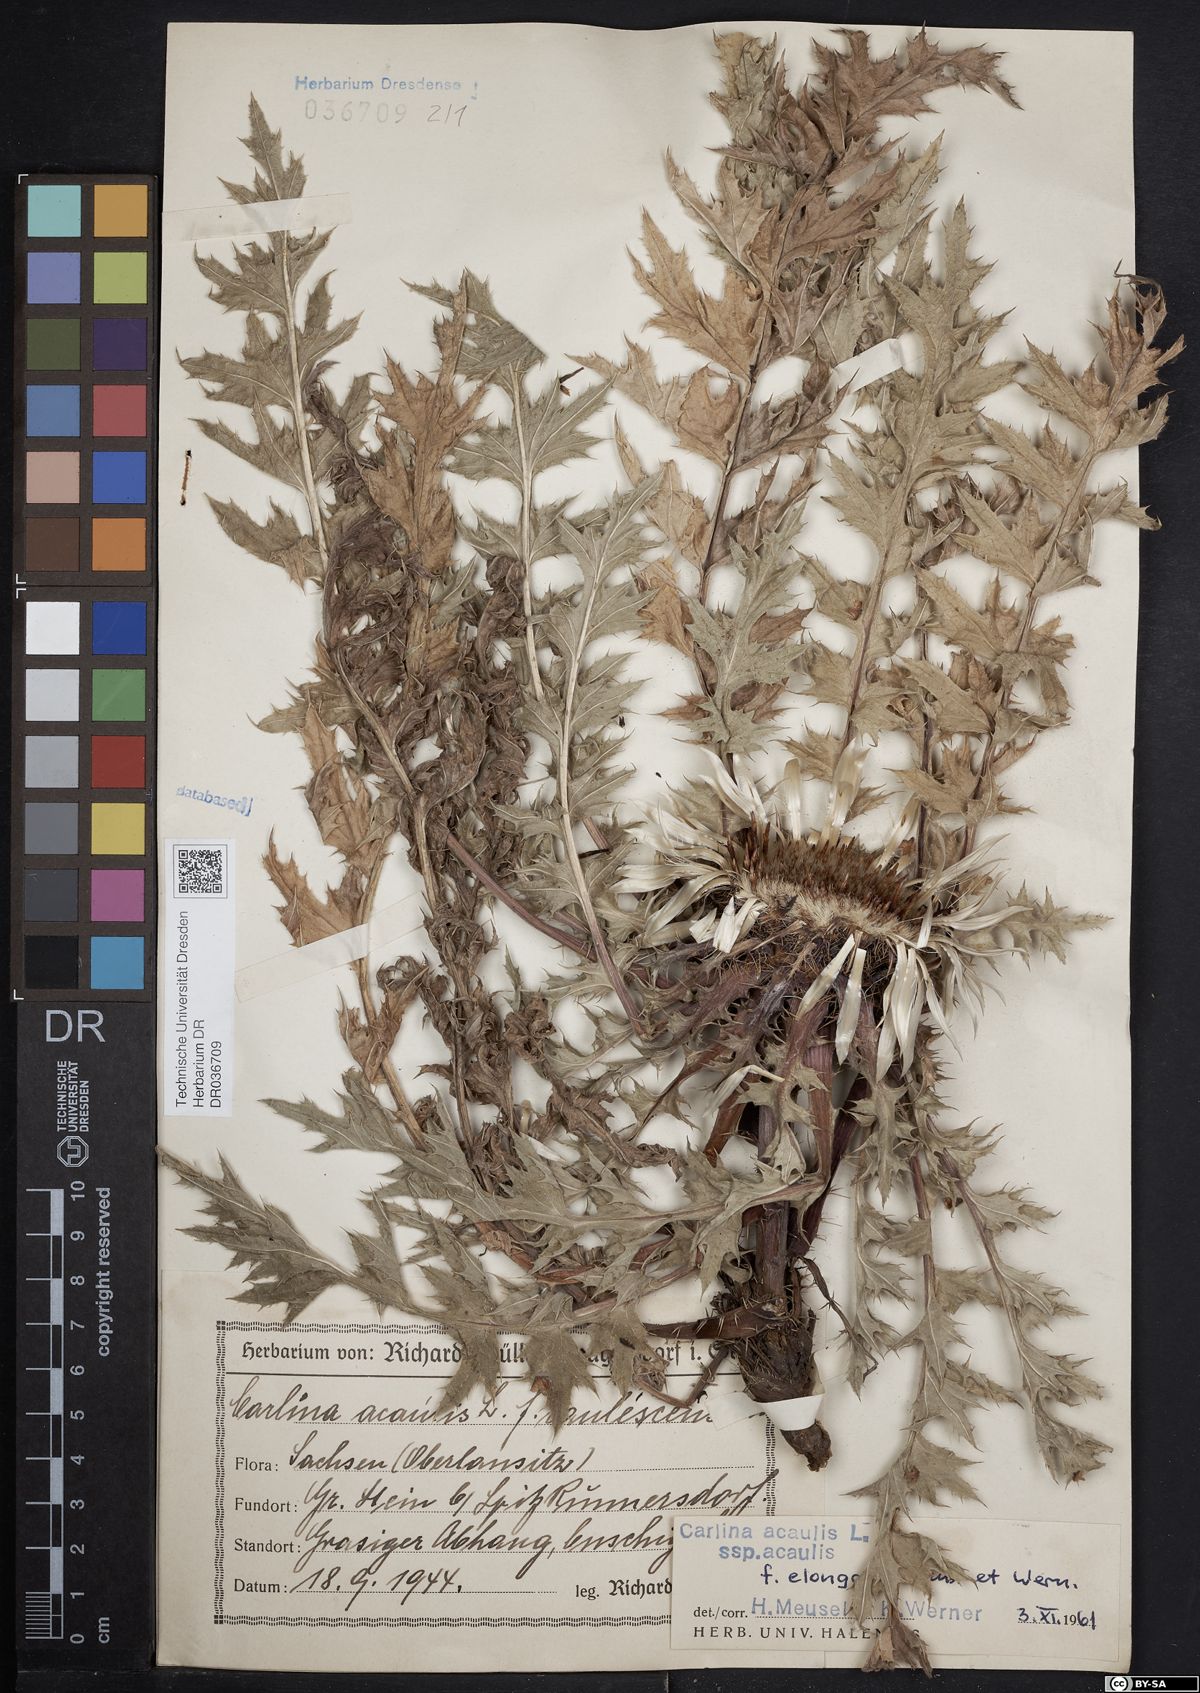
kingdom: Plantae
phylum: Tracheophyta
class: Magnoliopsida
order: Asterales
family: Asteraceae
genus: Carlina
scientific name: Carlina acaulis
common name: Stemless carline thistle
